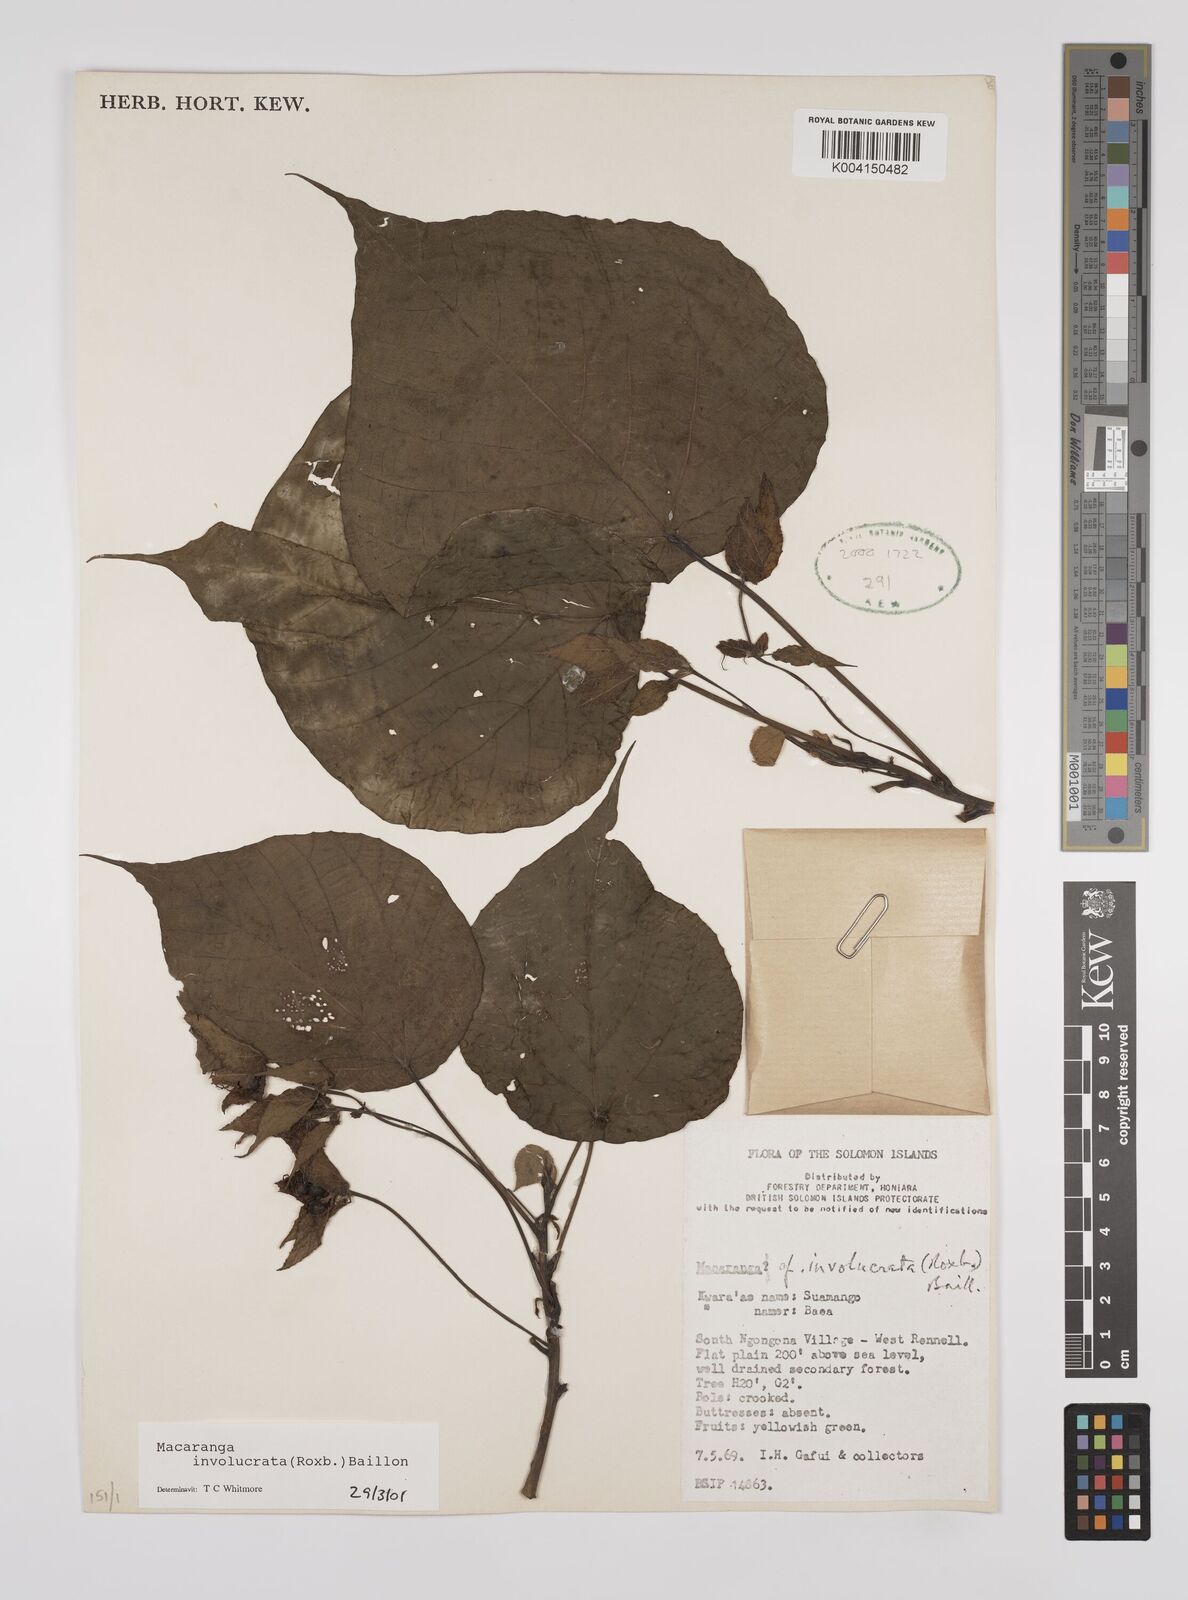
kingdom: Plantae
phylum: Tracheophyta
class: Magnoliopsida
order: Malpighiales
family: Euphorbiaceae
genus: Macaranga
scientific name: Macaranga involucrata
